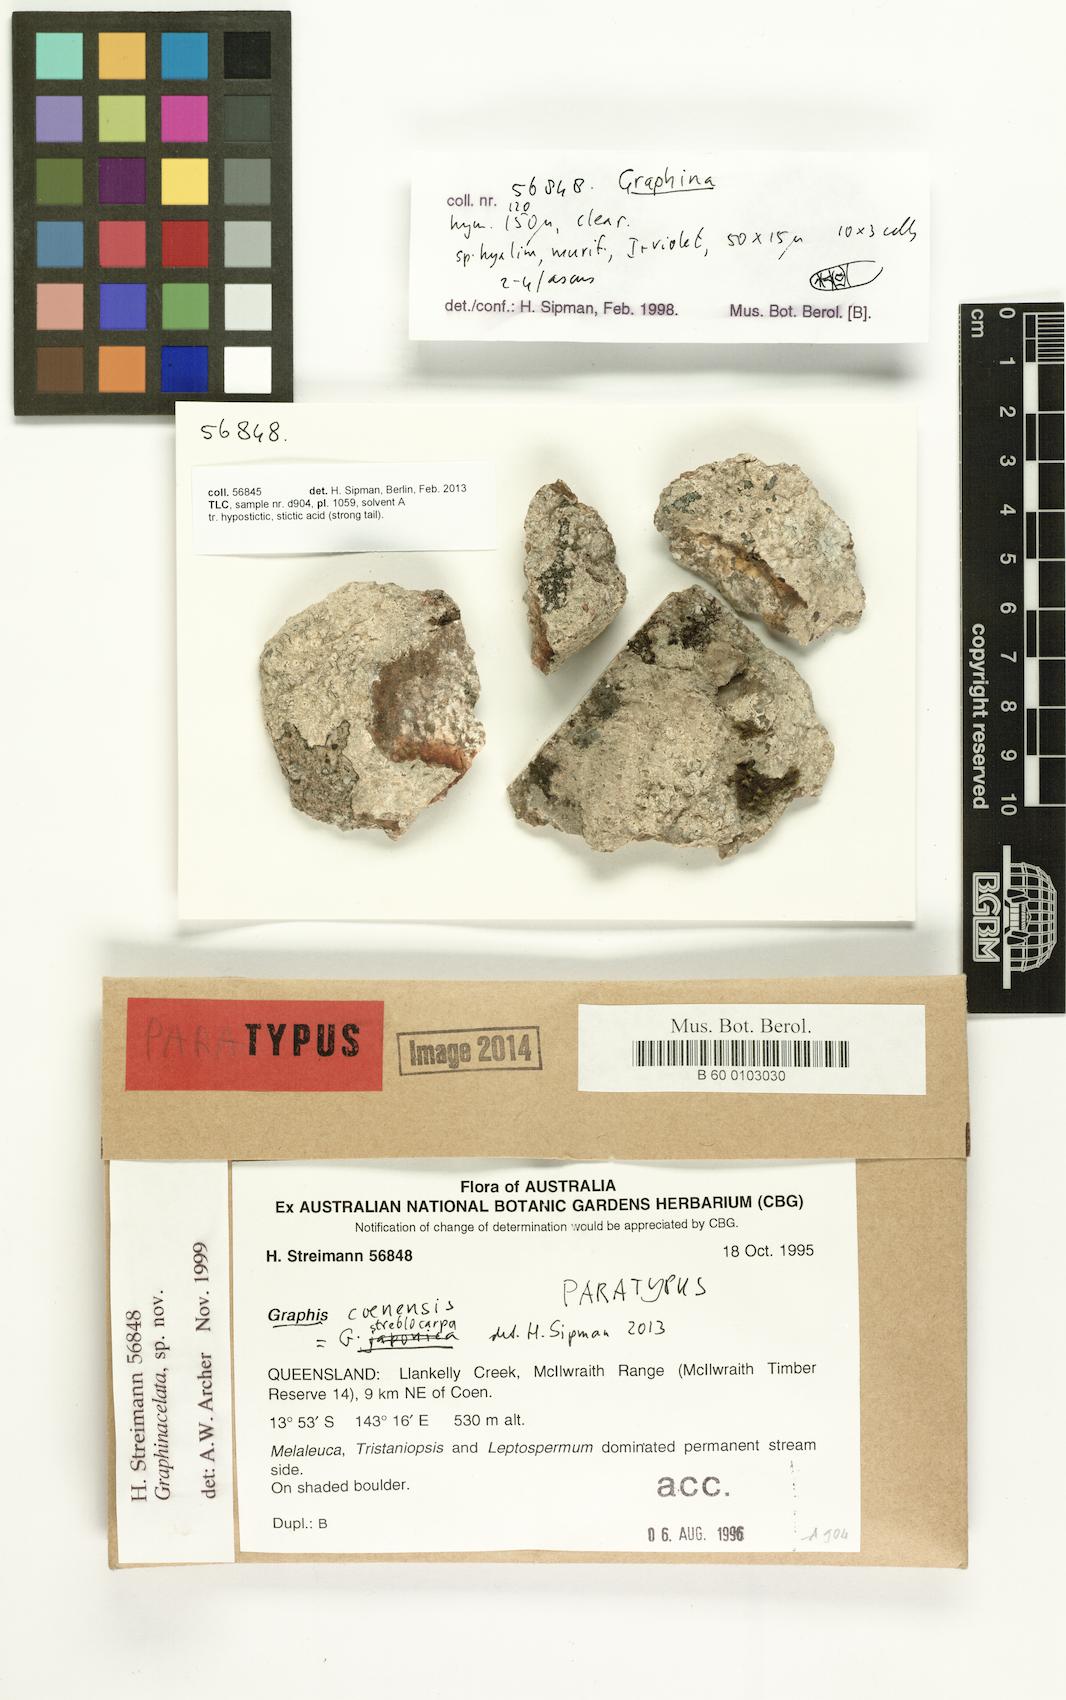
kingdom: Fungi
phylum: Ascomycota
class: Lecanoromycetes
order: Ostropales
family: Graphidaceae
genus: Graphis
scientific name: Graphis coenensis
